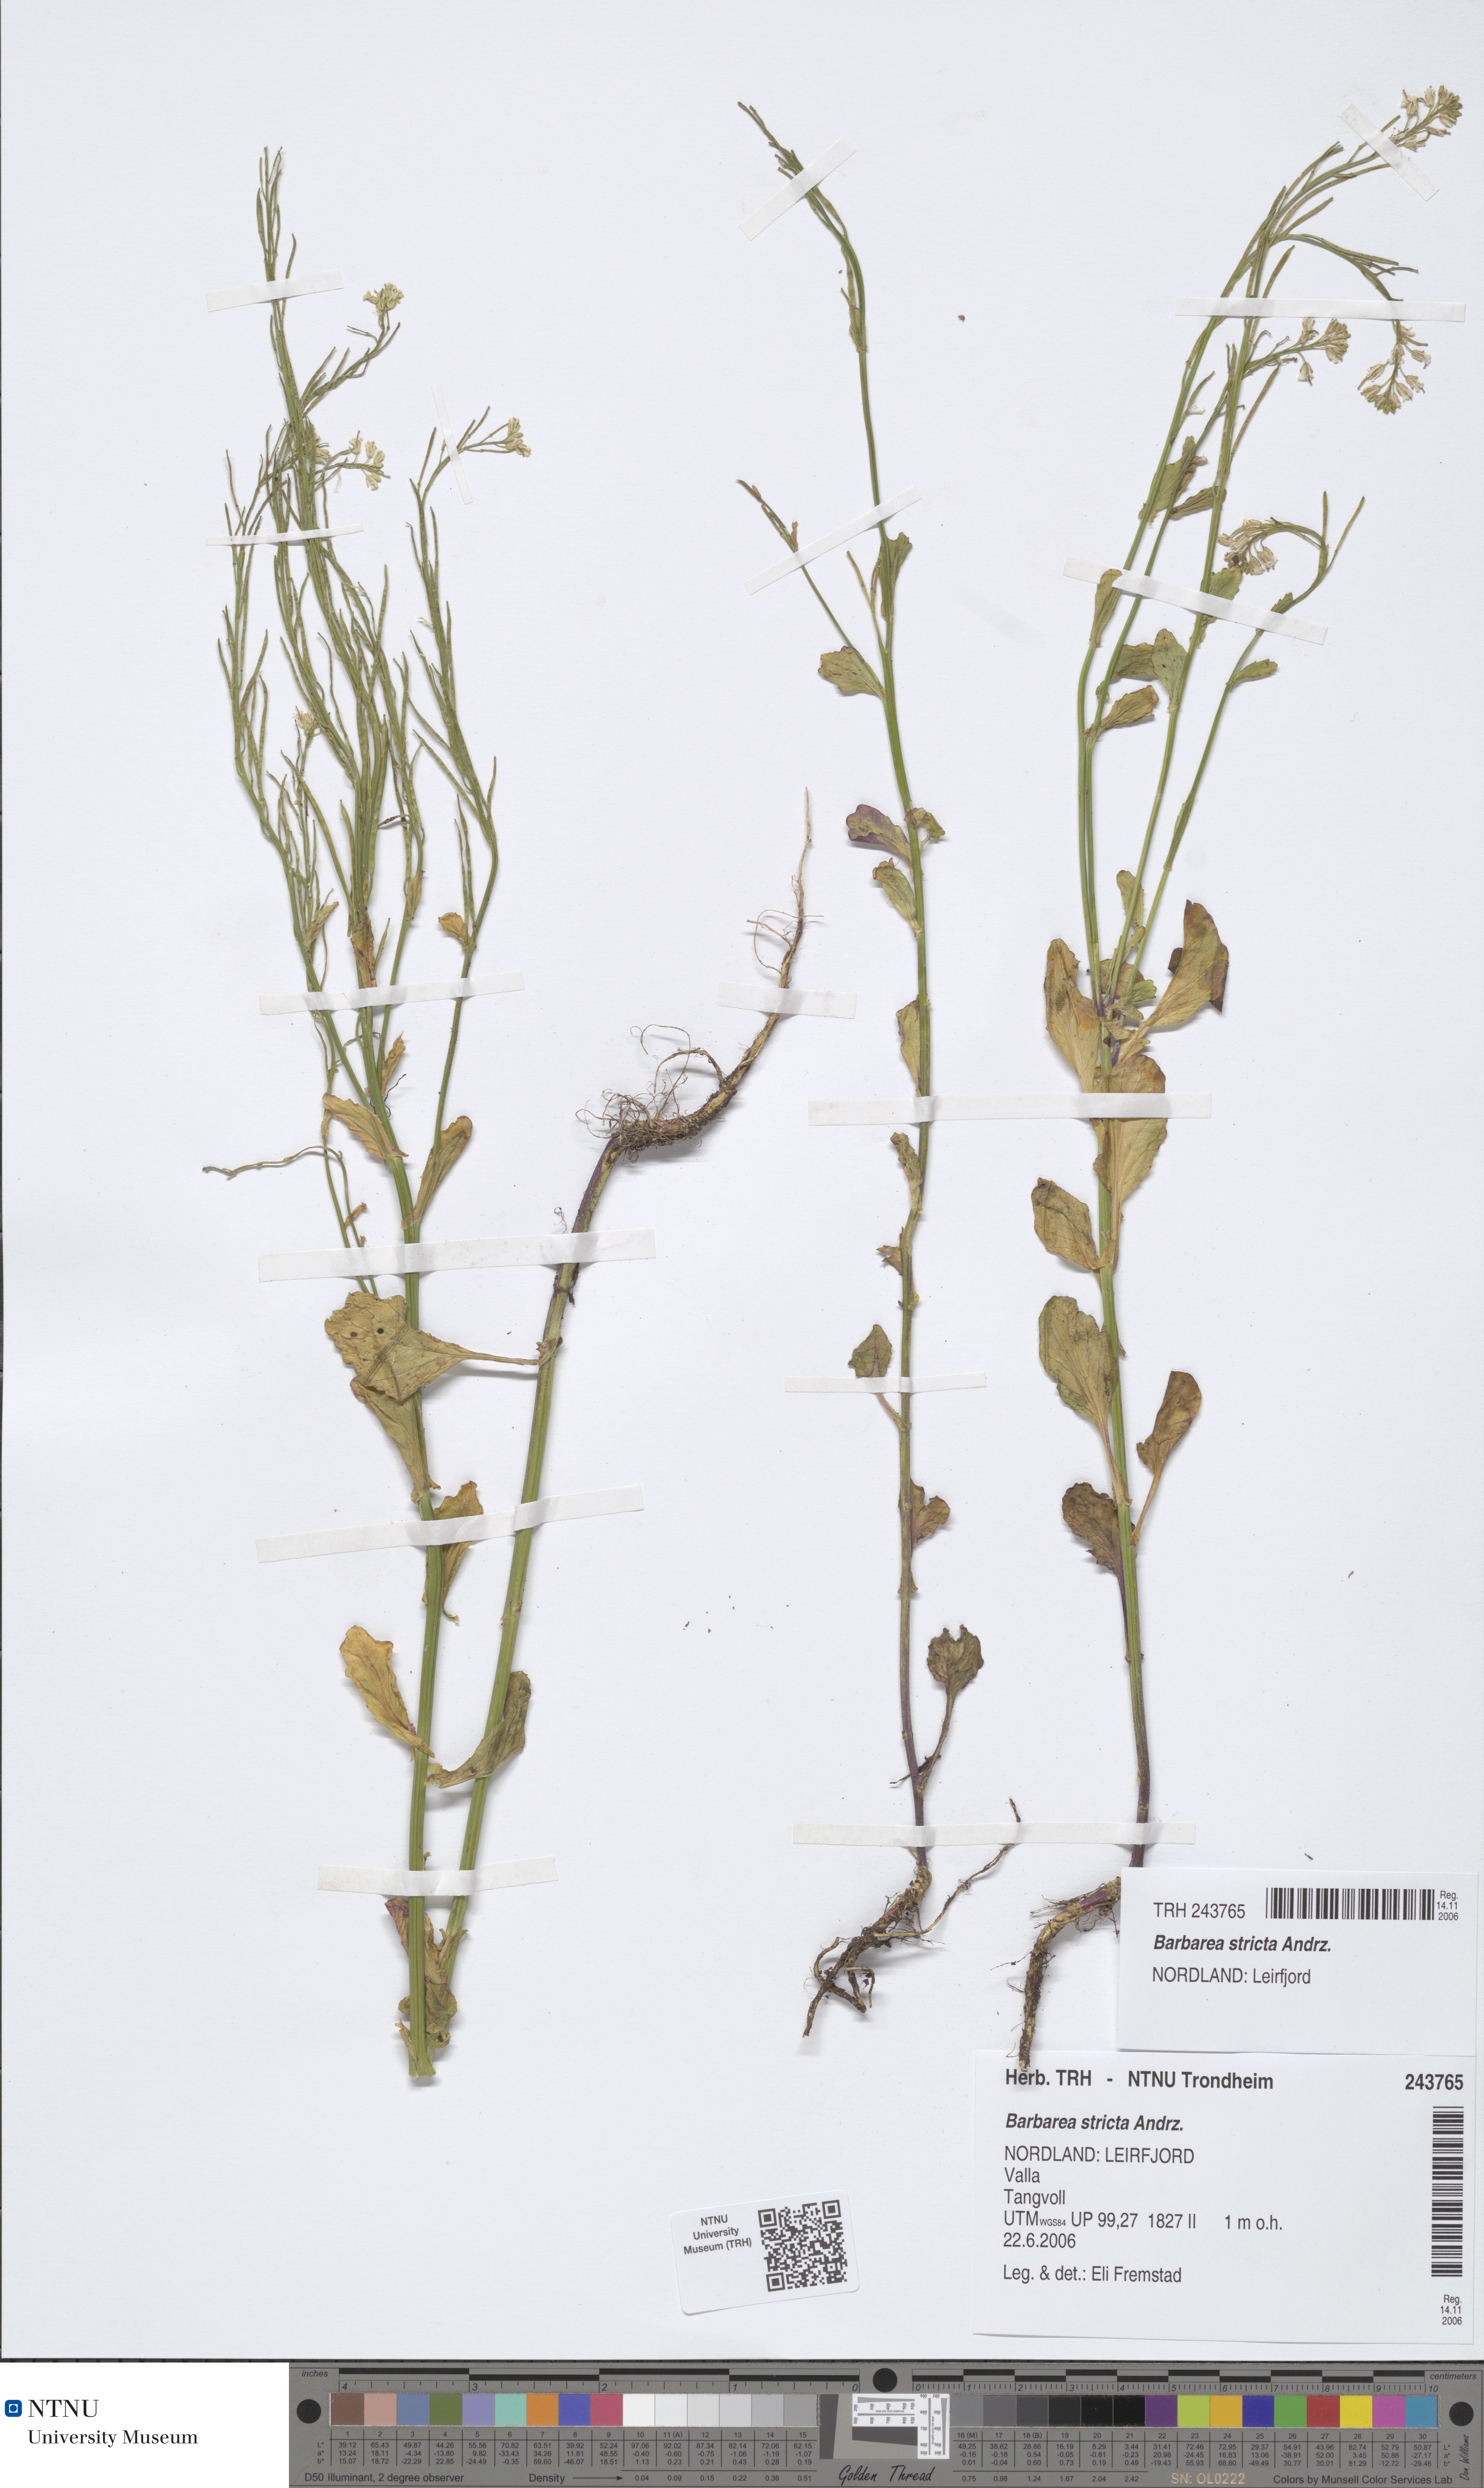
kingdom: Plantae
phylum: Tracheophyta
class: Magnoliopsida
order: Brassicales
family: Brassicaceae
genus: Barbarea
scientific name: Barbarea stricta
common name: Small-flowered winter-cress
